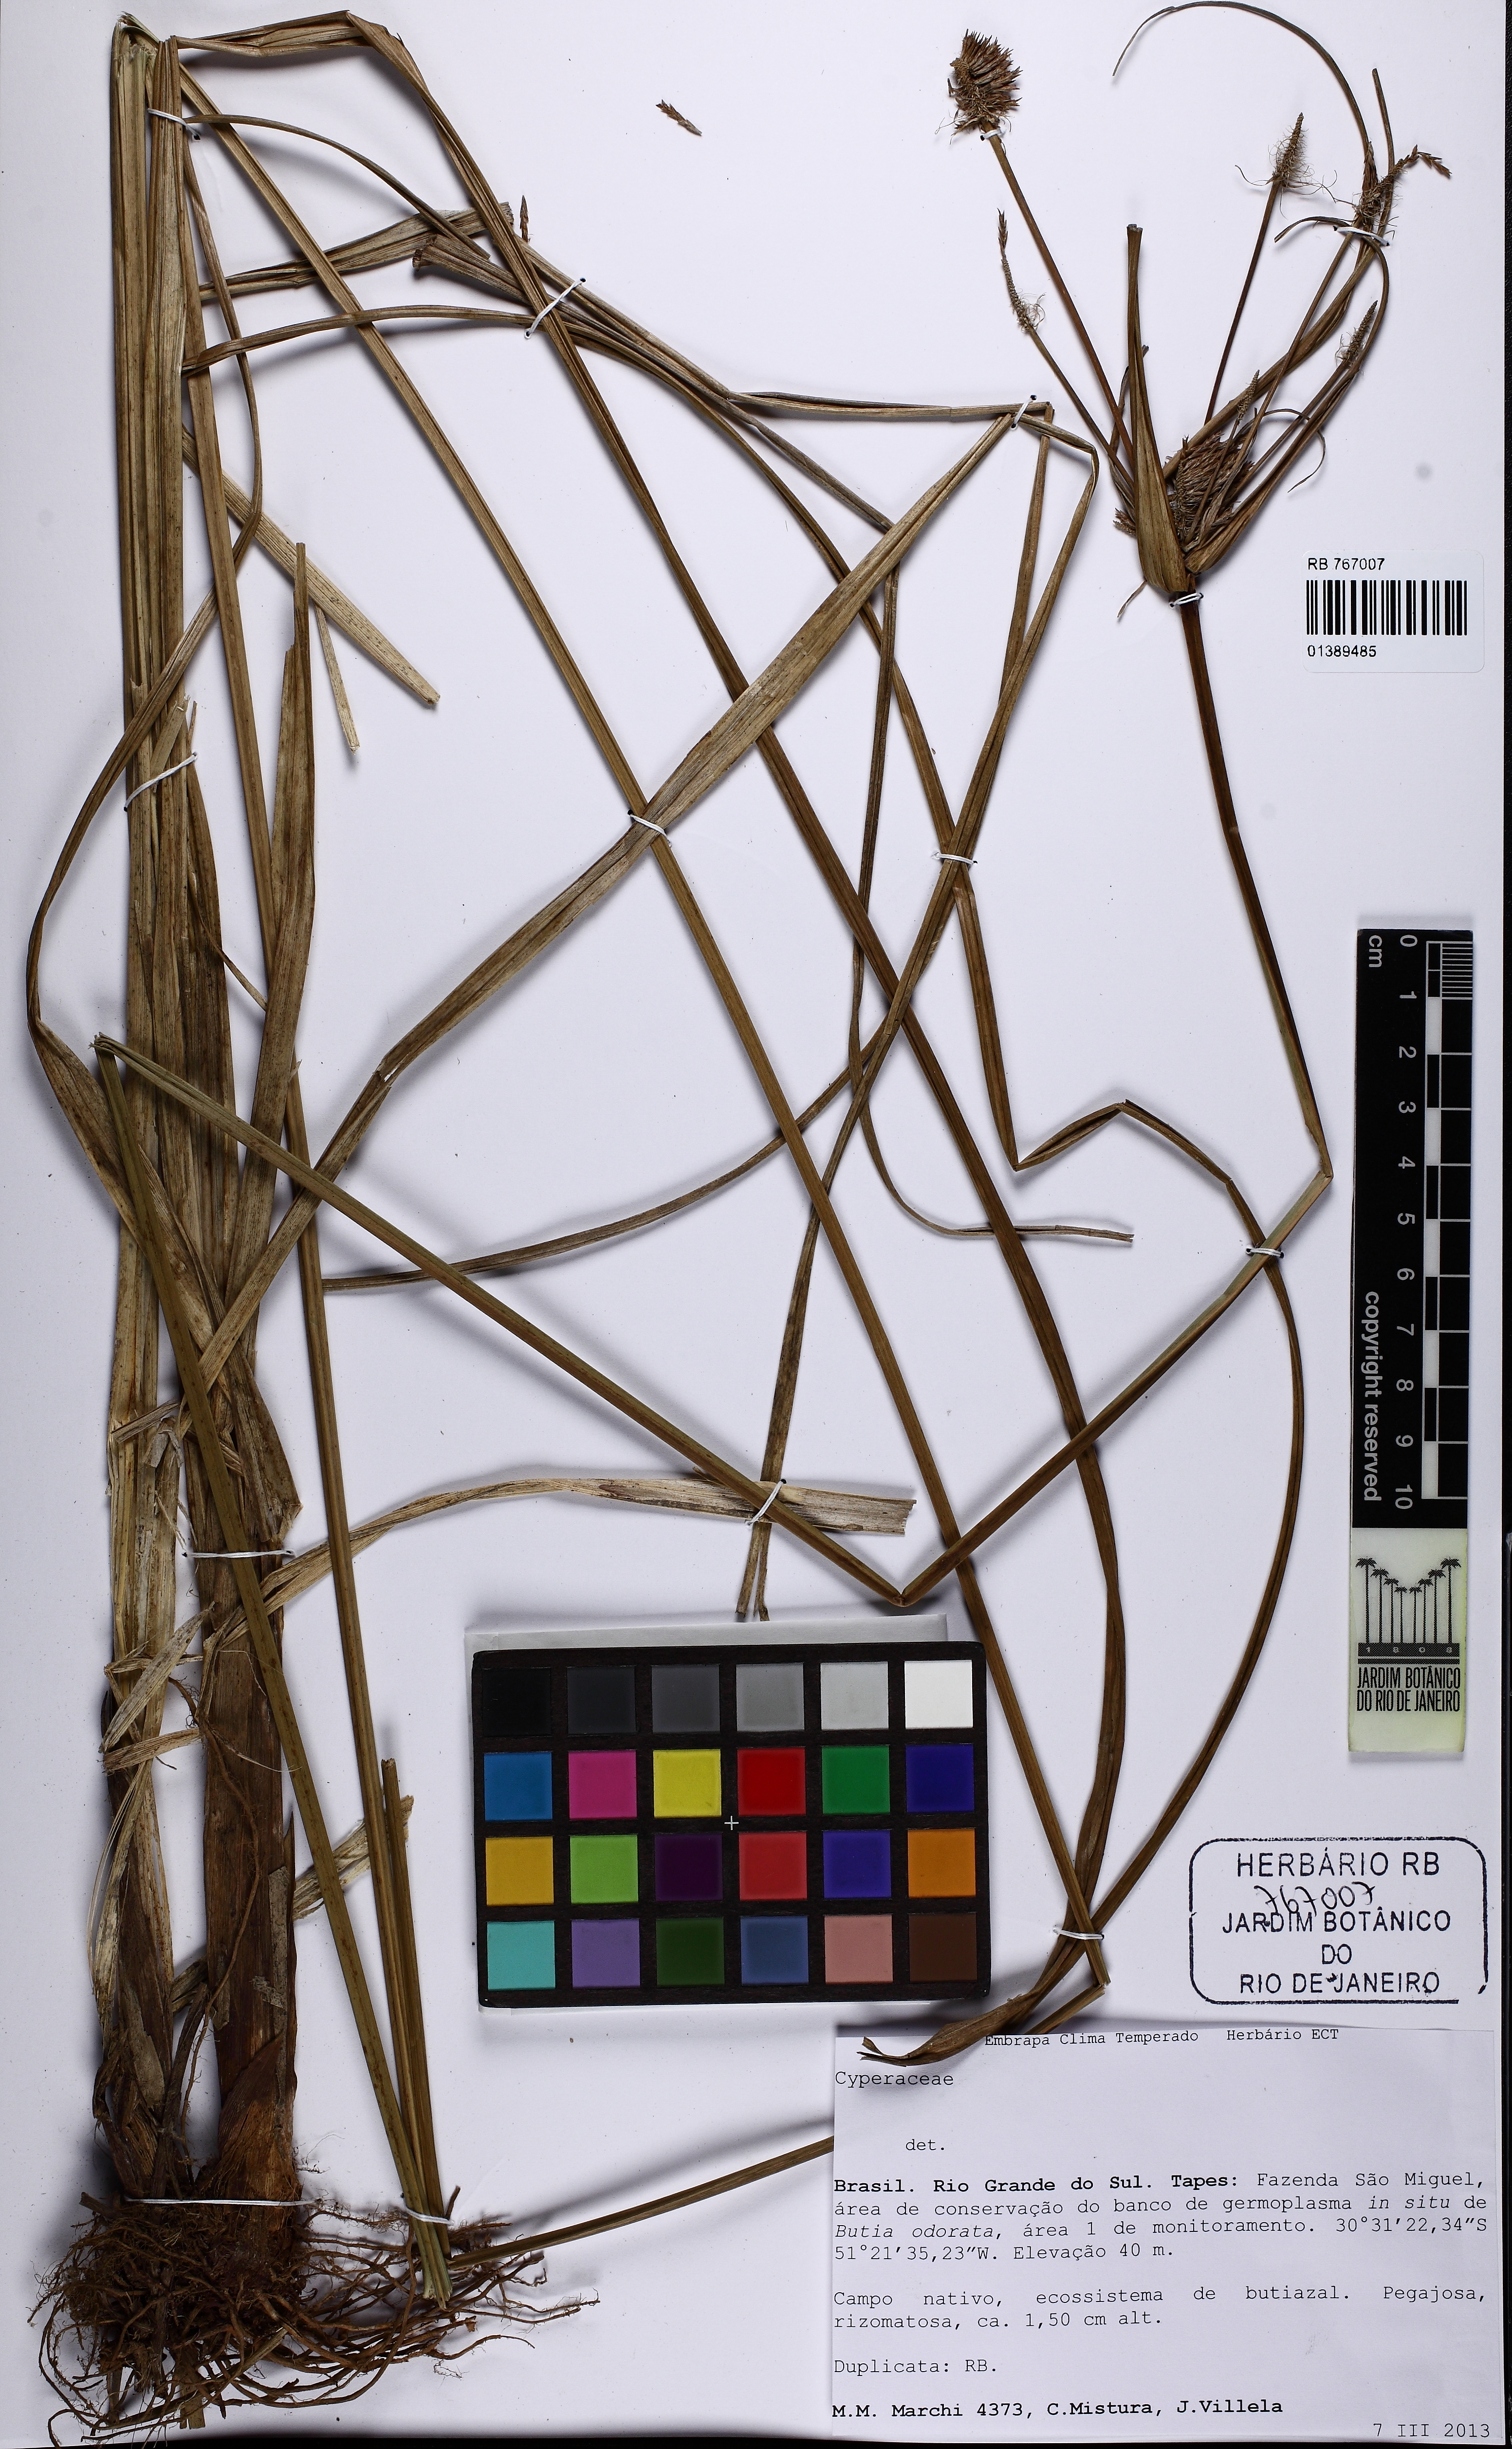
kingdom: Plantae
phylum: Tracheophyta
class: Liliopsida
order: Poales
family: Cyperaceae
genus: Cyperus
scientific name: Cyperus
